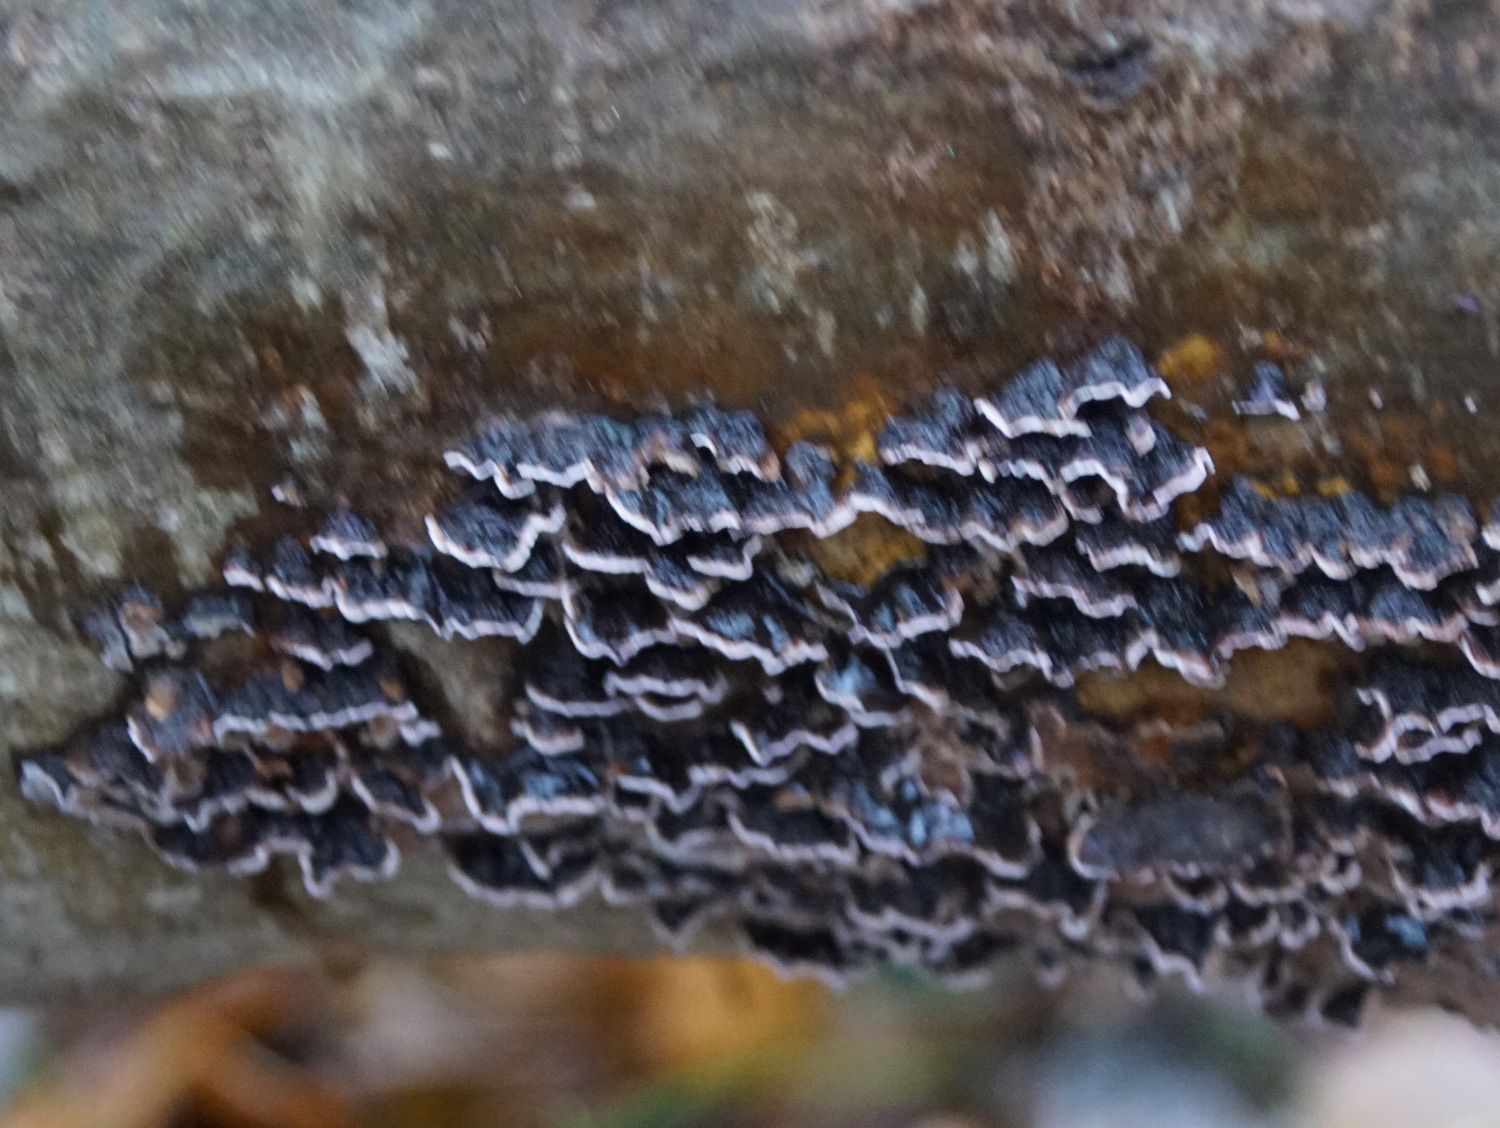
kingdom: Fungi
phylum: Basidiomycota
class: Agaricomycetes
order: Agaricales
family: Cyphellaceae
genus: Chondrostereum
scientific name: Chondrostereum purpureum
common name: purpurlædersvamp
